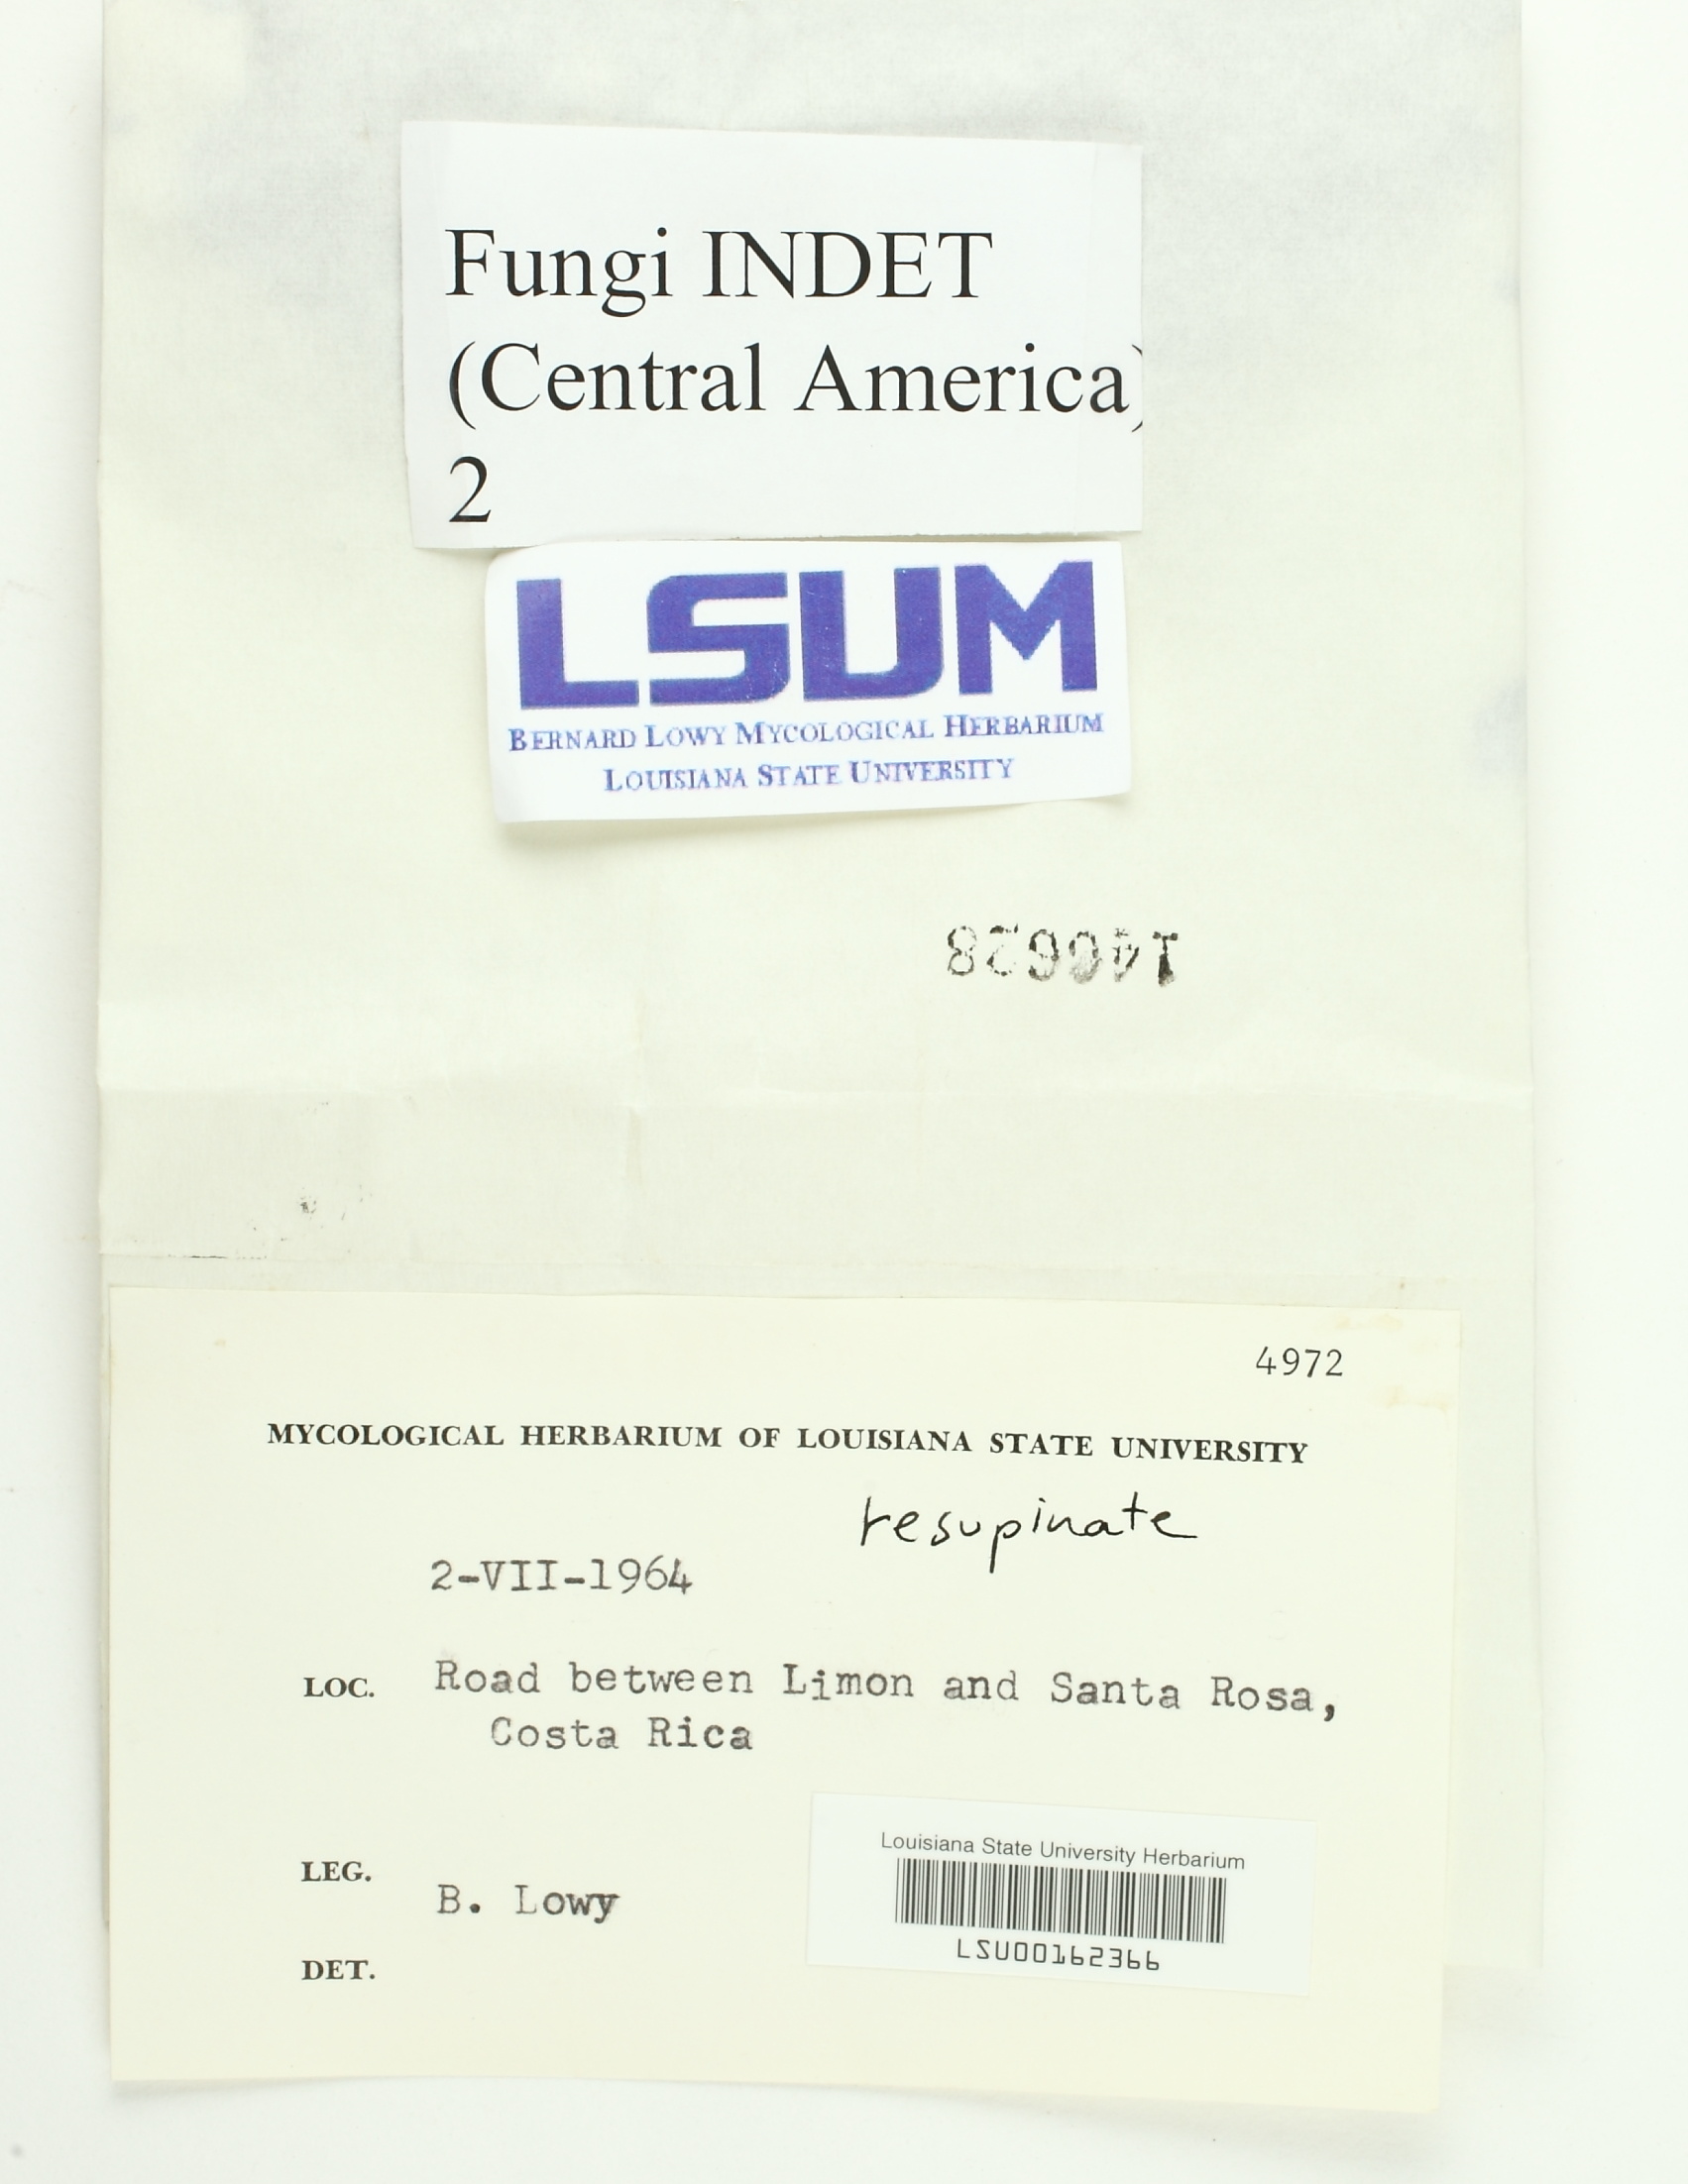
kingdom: Fungi
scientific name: Fungi
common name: Fungi
